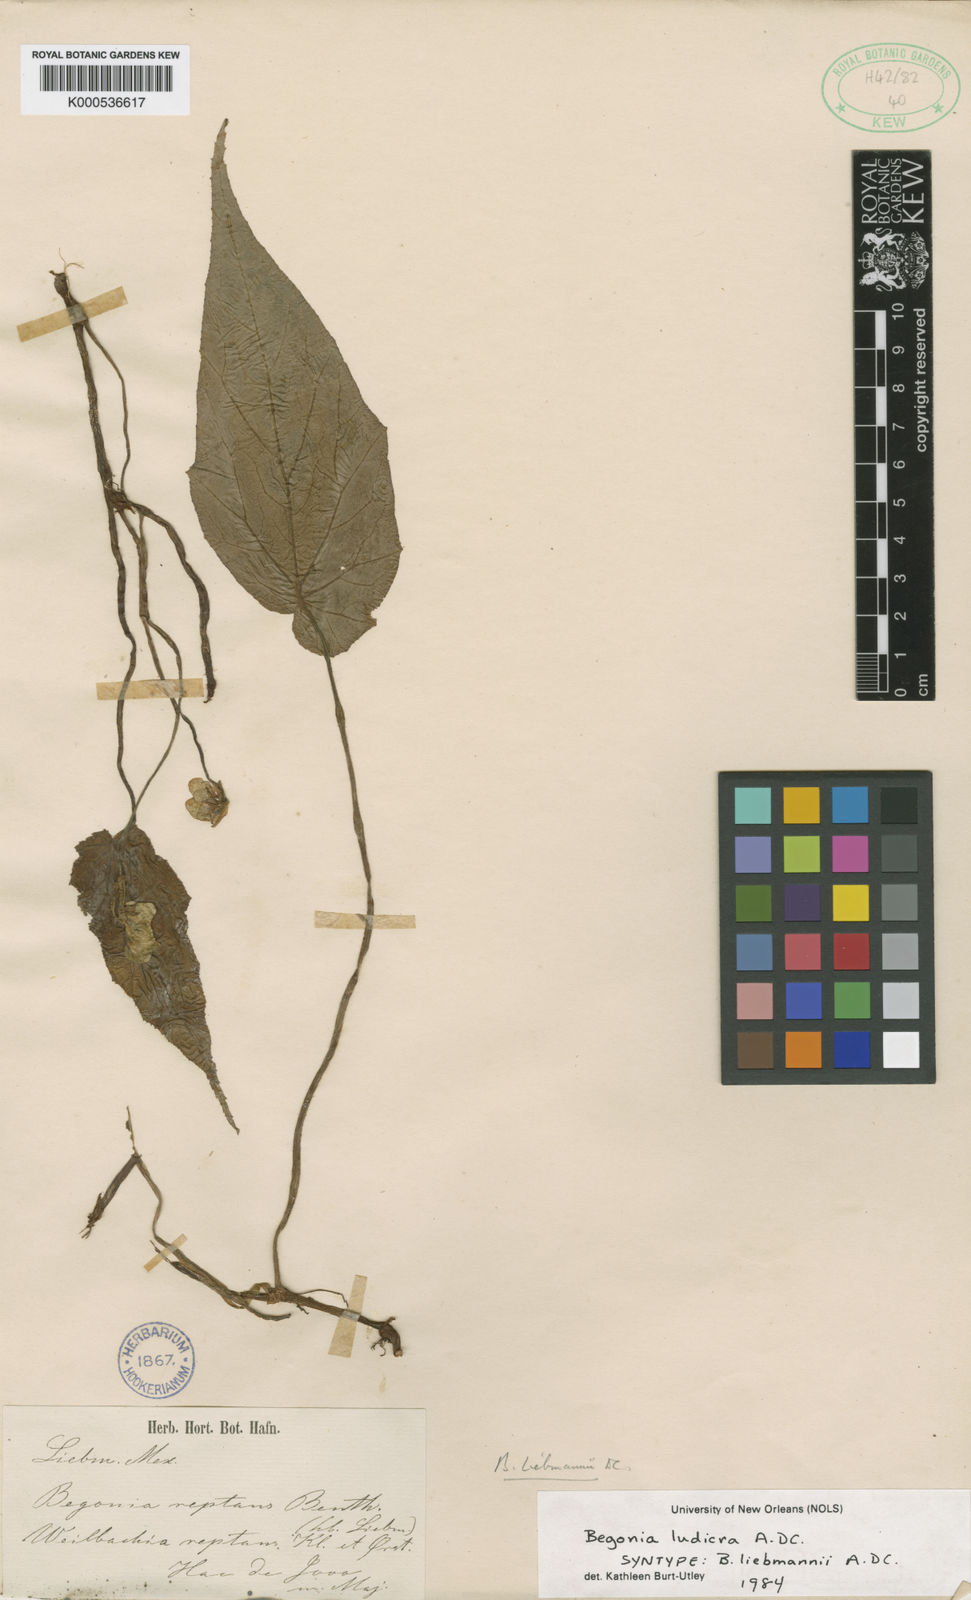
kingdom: Plantae
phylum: Tracheophyta
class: Magnoliopsida
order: Cucurbitales
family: Begoniaceae
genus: Begonia
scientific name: Begonia ludicra
